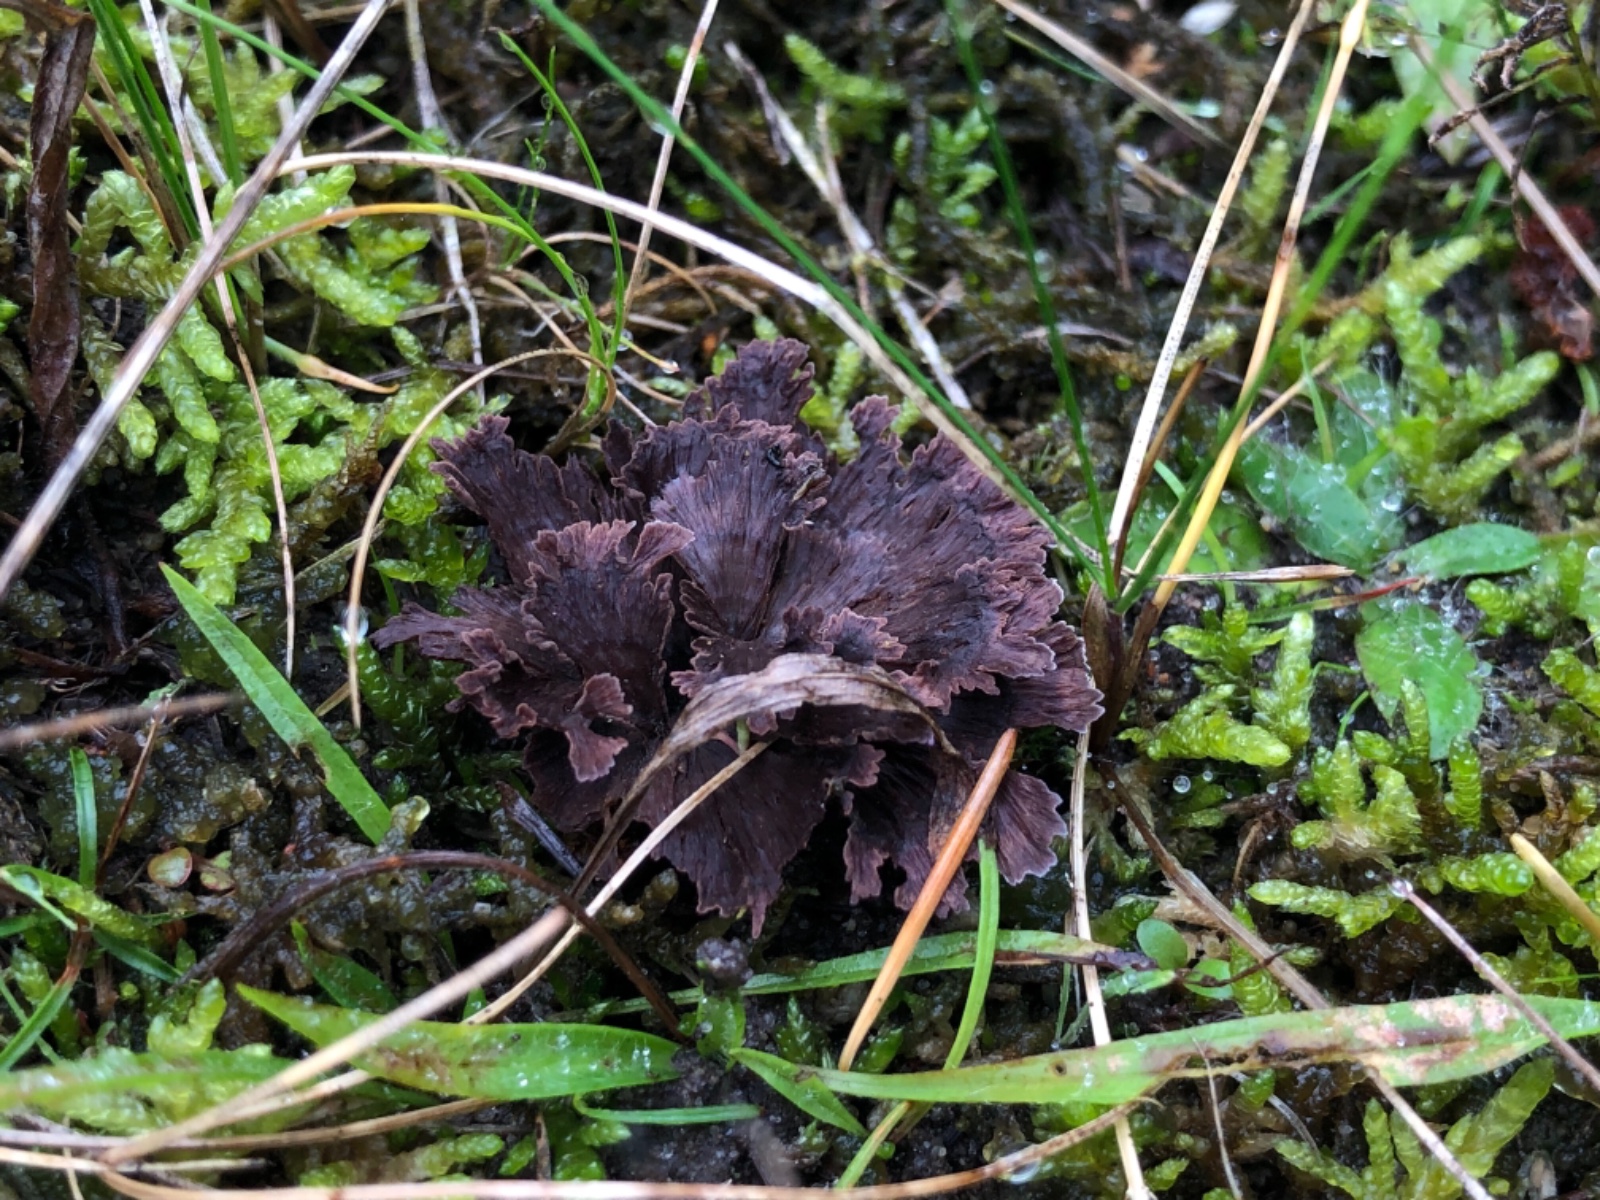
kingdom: Fungi
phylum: Basidiomycota
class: Agaricomycetes
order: Thelephorales
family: Thelephoraceae
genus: Thelephora
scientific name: Thelephora terrestris
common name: fliget frynsesvamp
